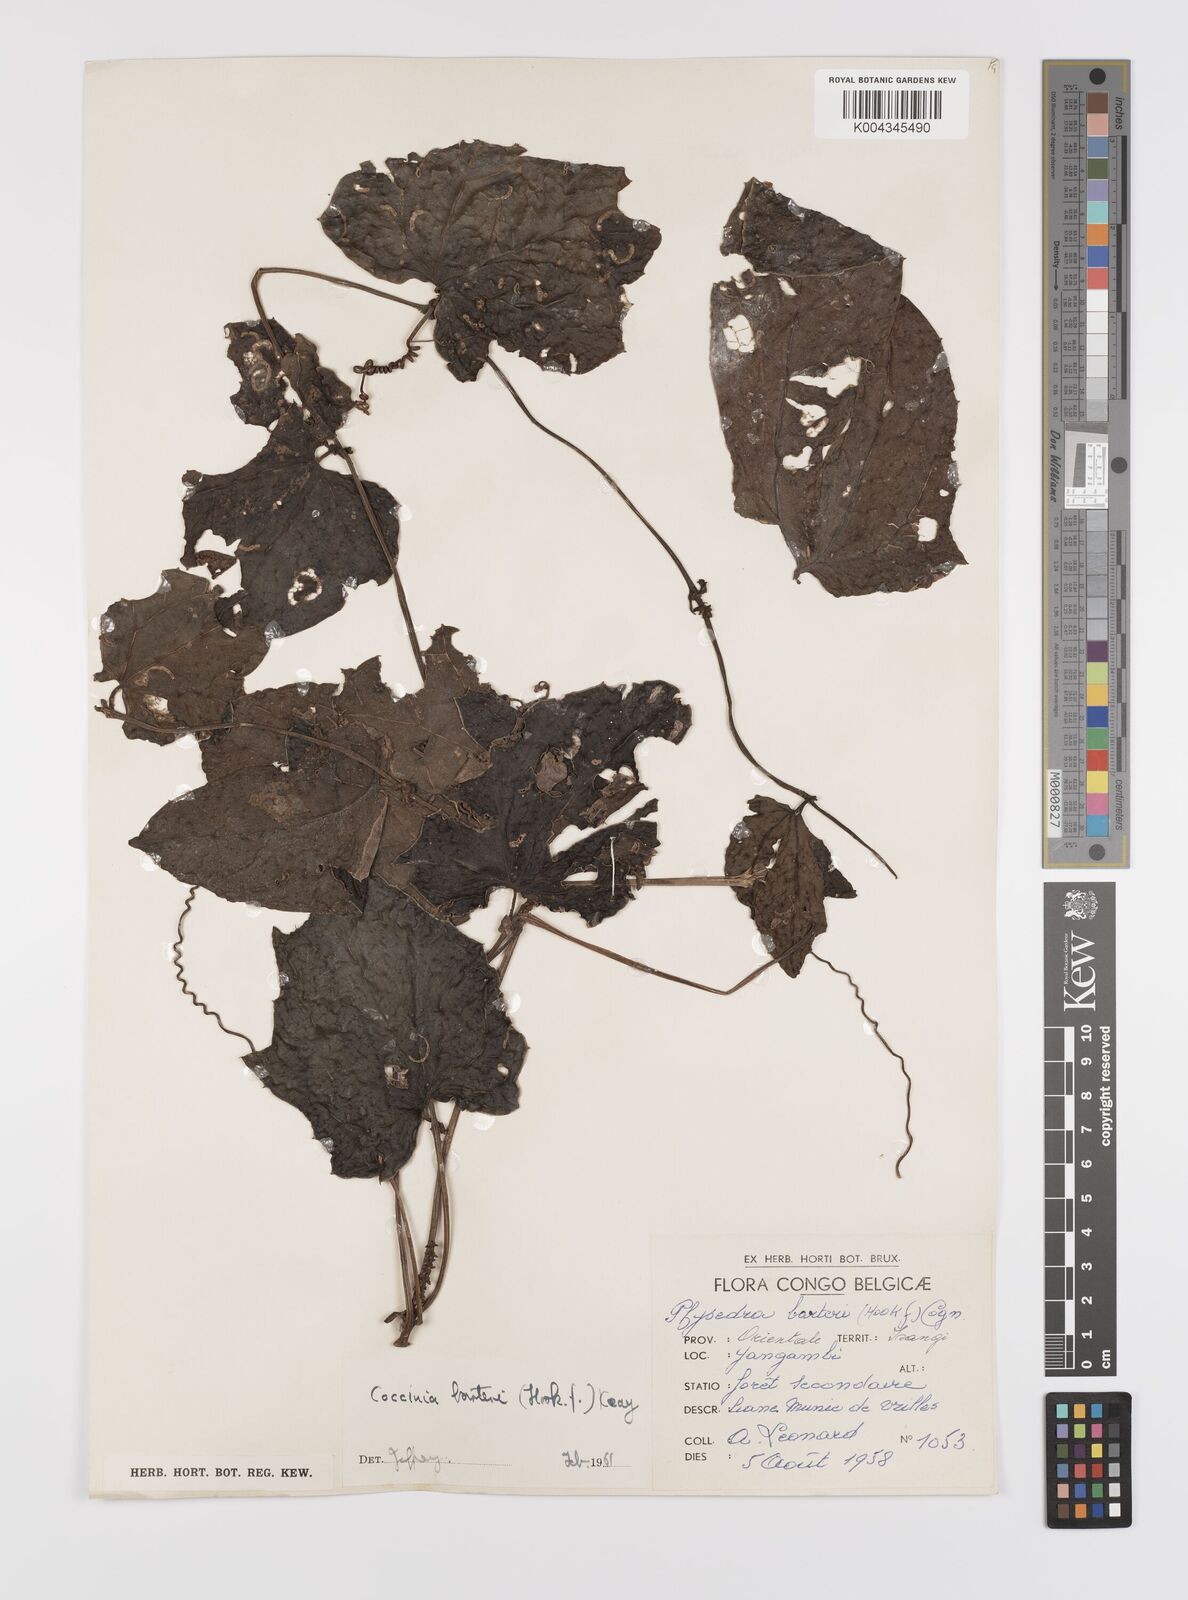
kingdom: Plantae
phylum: Tracheophyta
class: Magnoliopsida
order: Cucurbitales
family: Cucurbitaceae
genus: Coccinia
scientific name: Coccinia barteri
